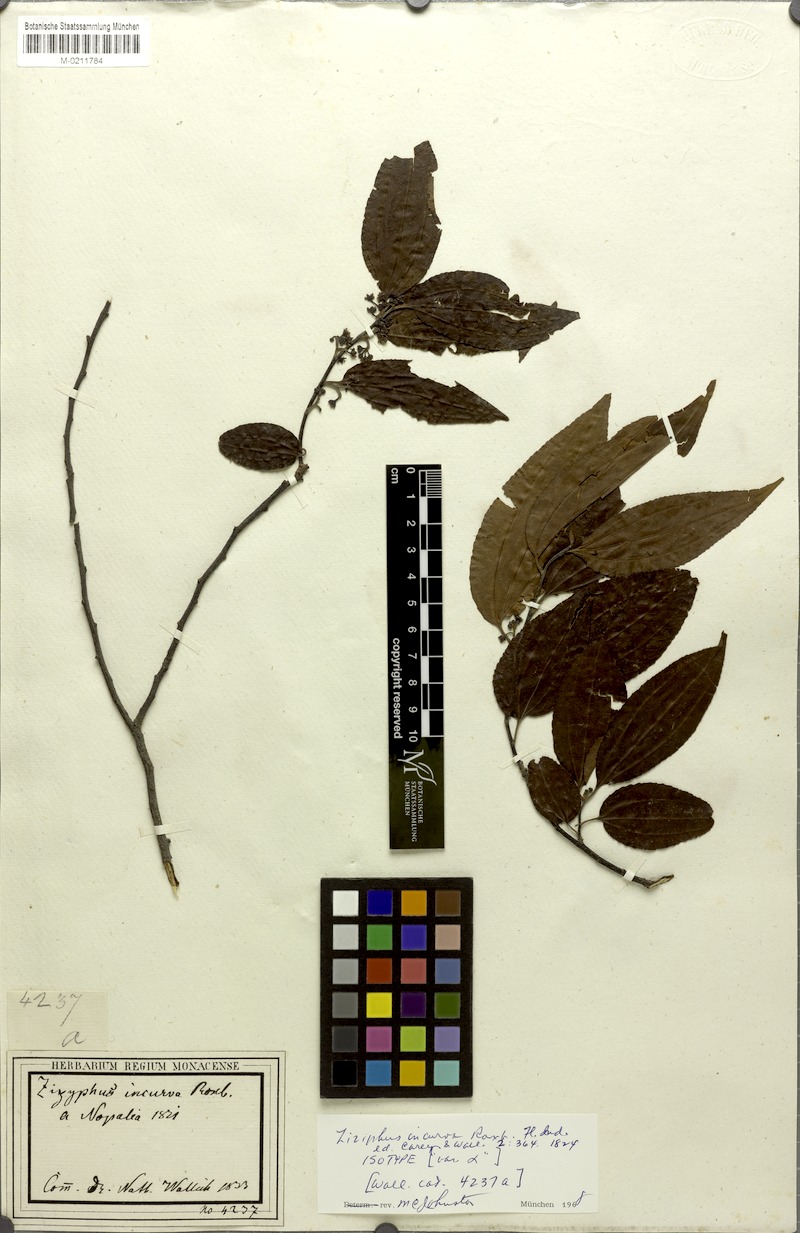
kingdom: Plantae
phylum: Tracheophyta
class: Magnoliopsida
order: Rosales
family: Rhamnaceae
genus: Ziziphus
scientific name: Ziziphus incurva
